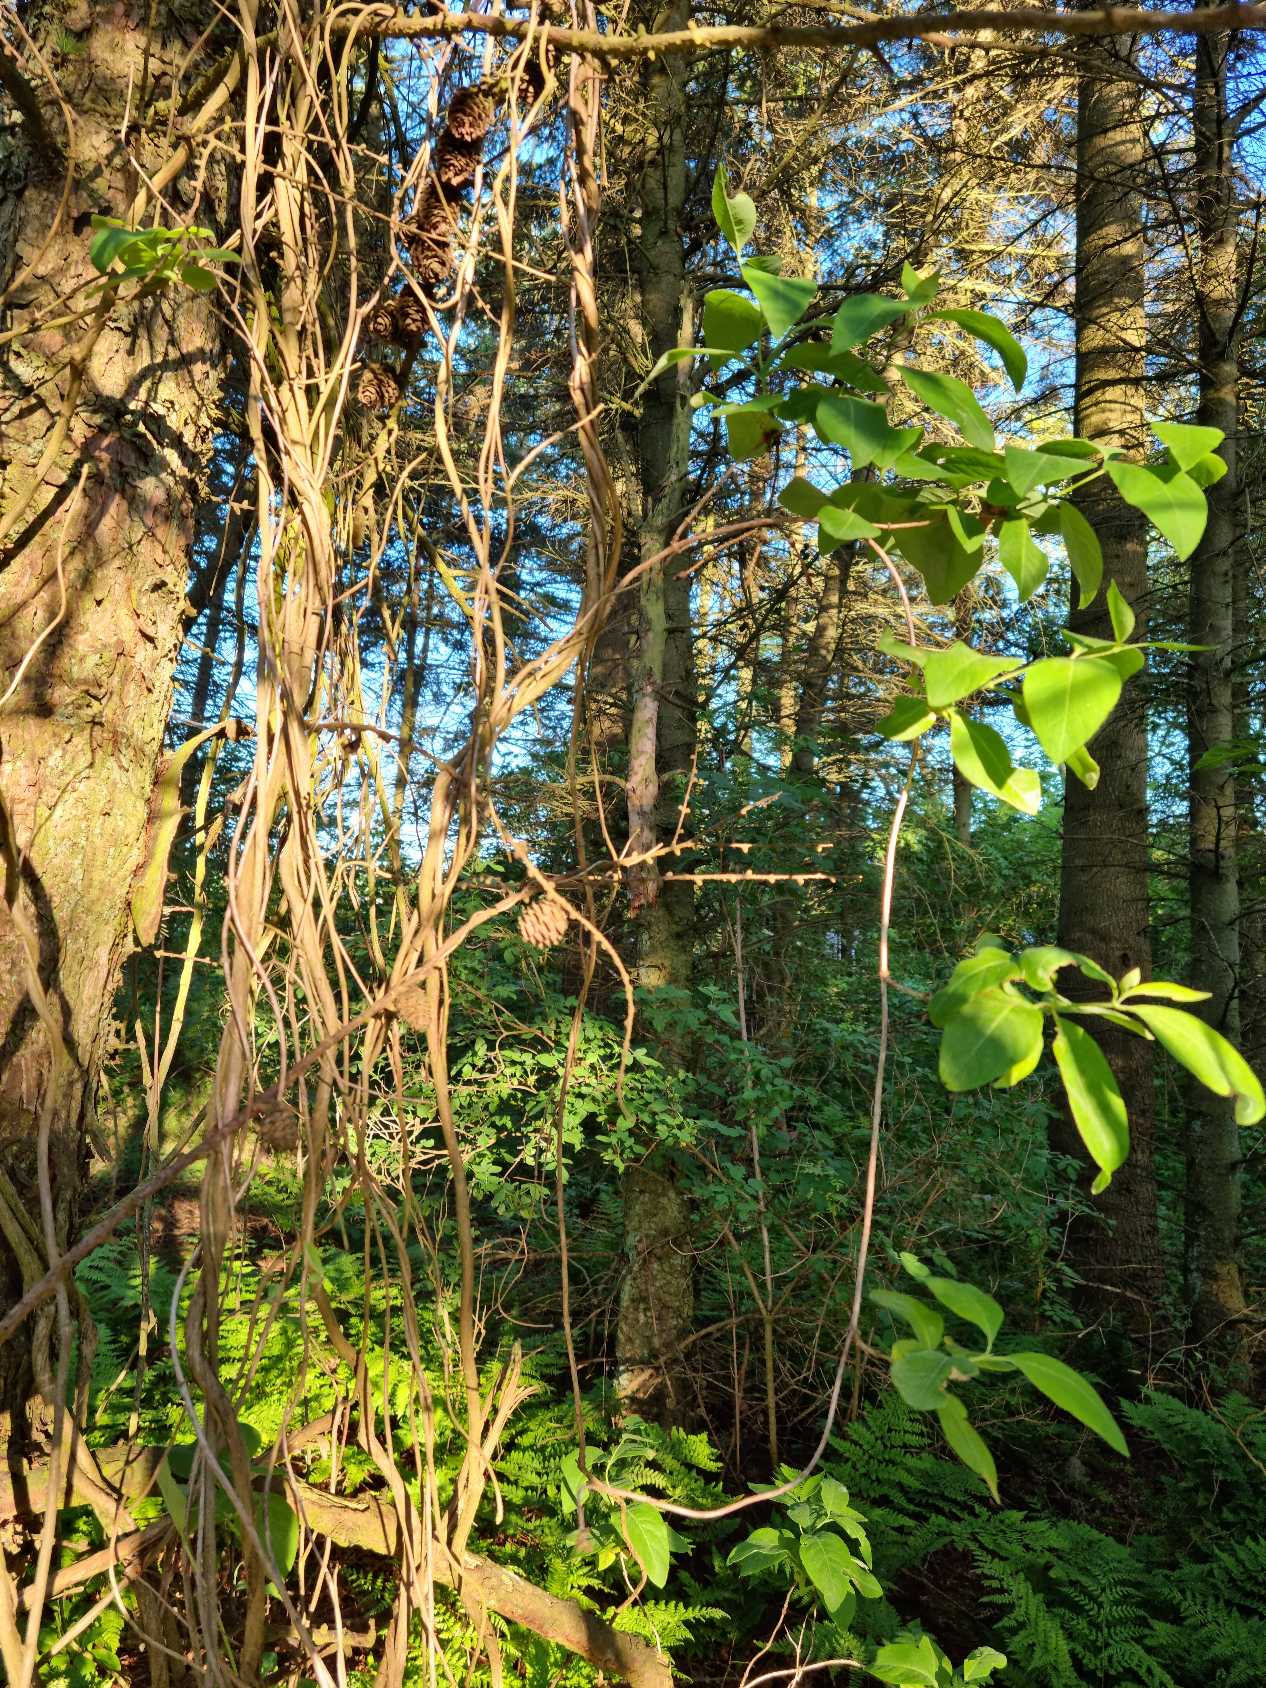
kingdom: Plantae
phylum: Tracheophyta
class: Magnoliopsida
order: Dipsacales
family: Caprifoliaceae
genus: Lonicera
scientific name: Lonicera periclymenum
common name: Almindelig gedeblad
